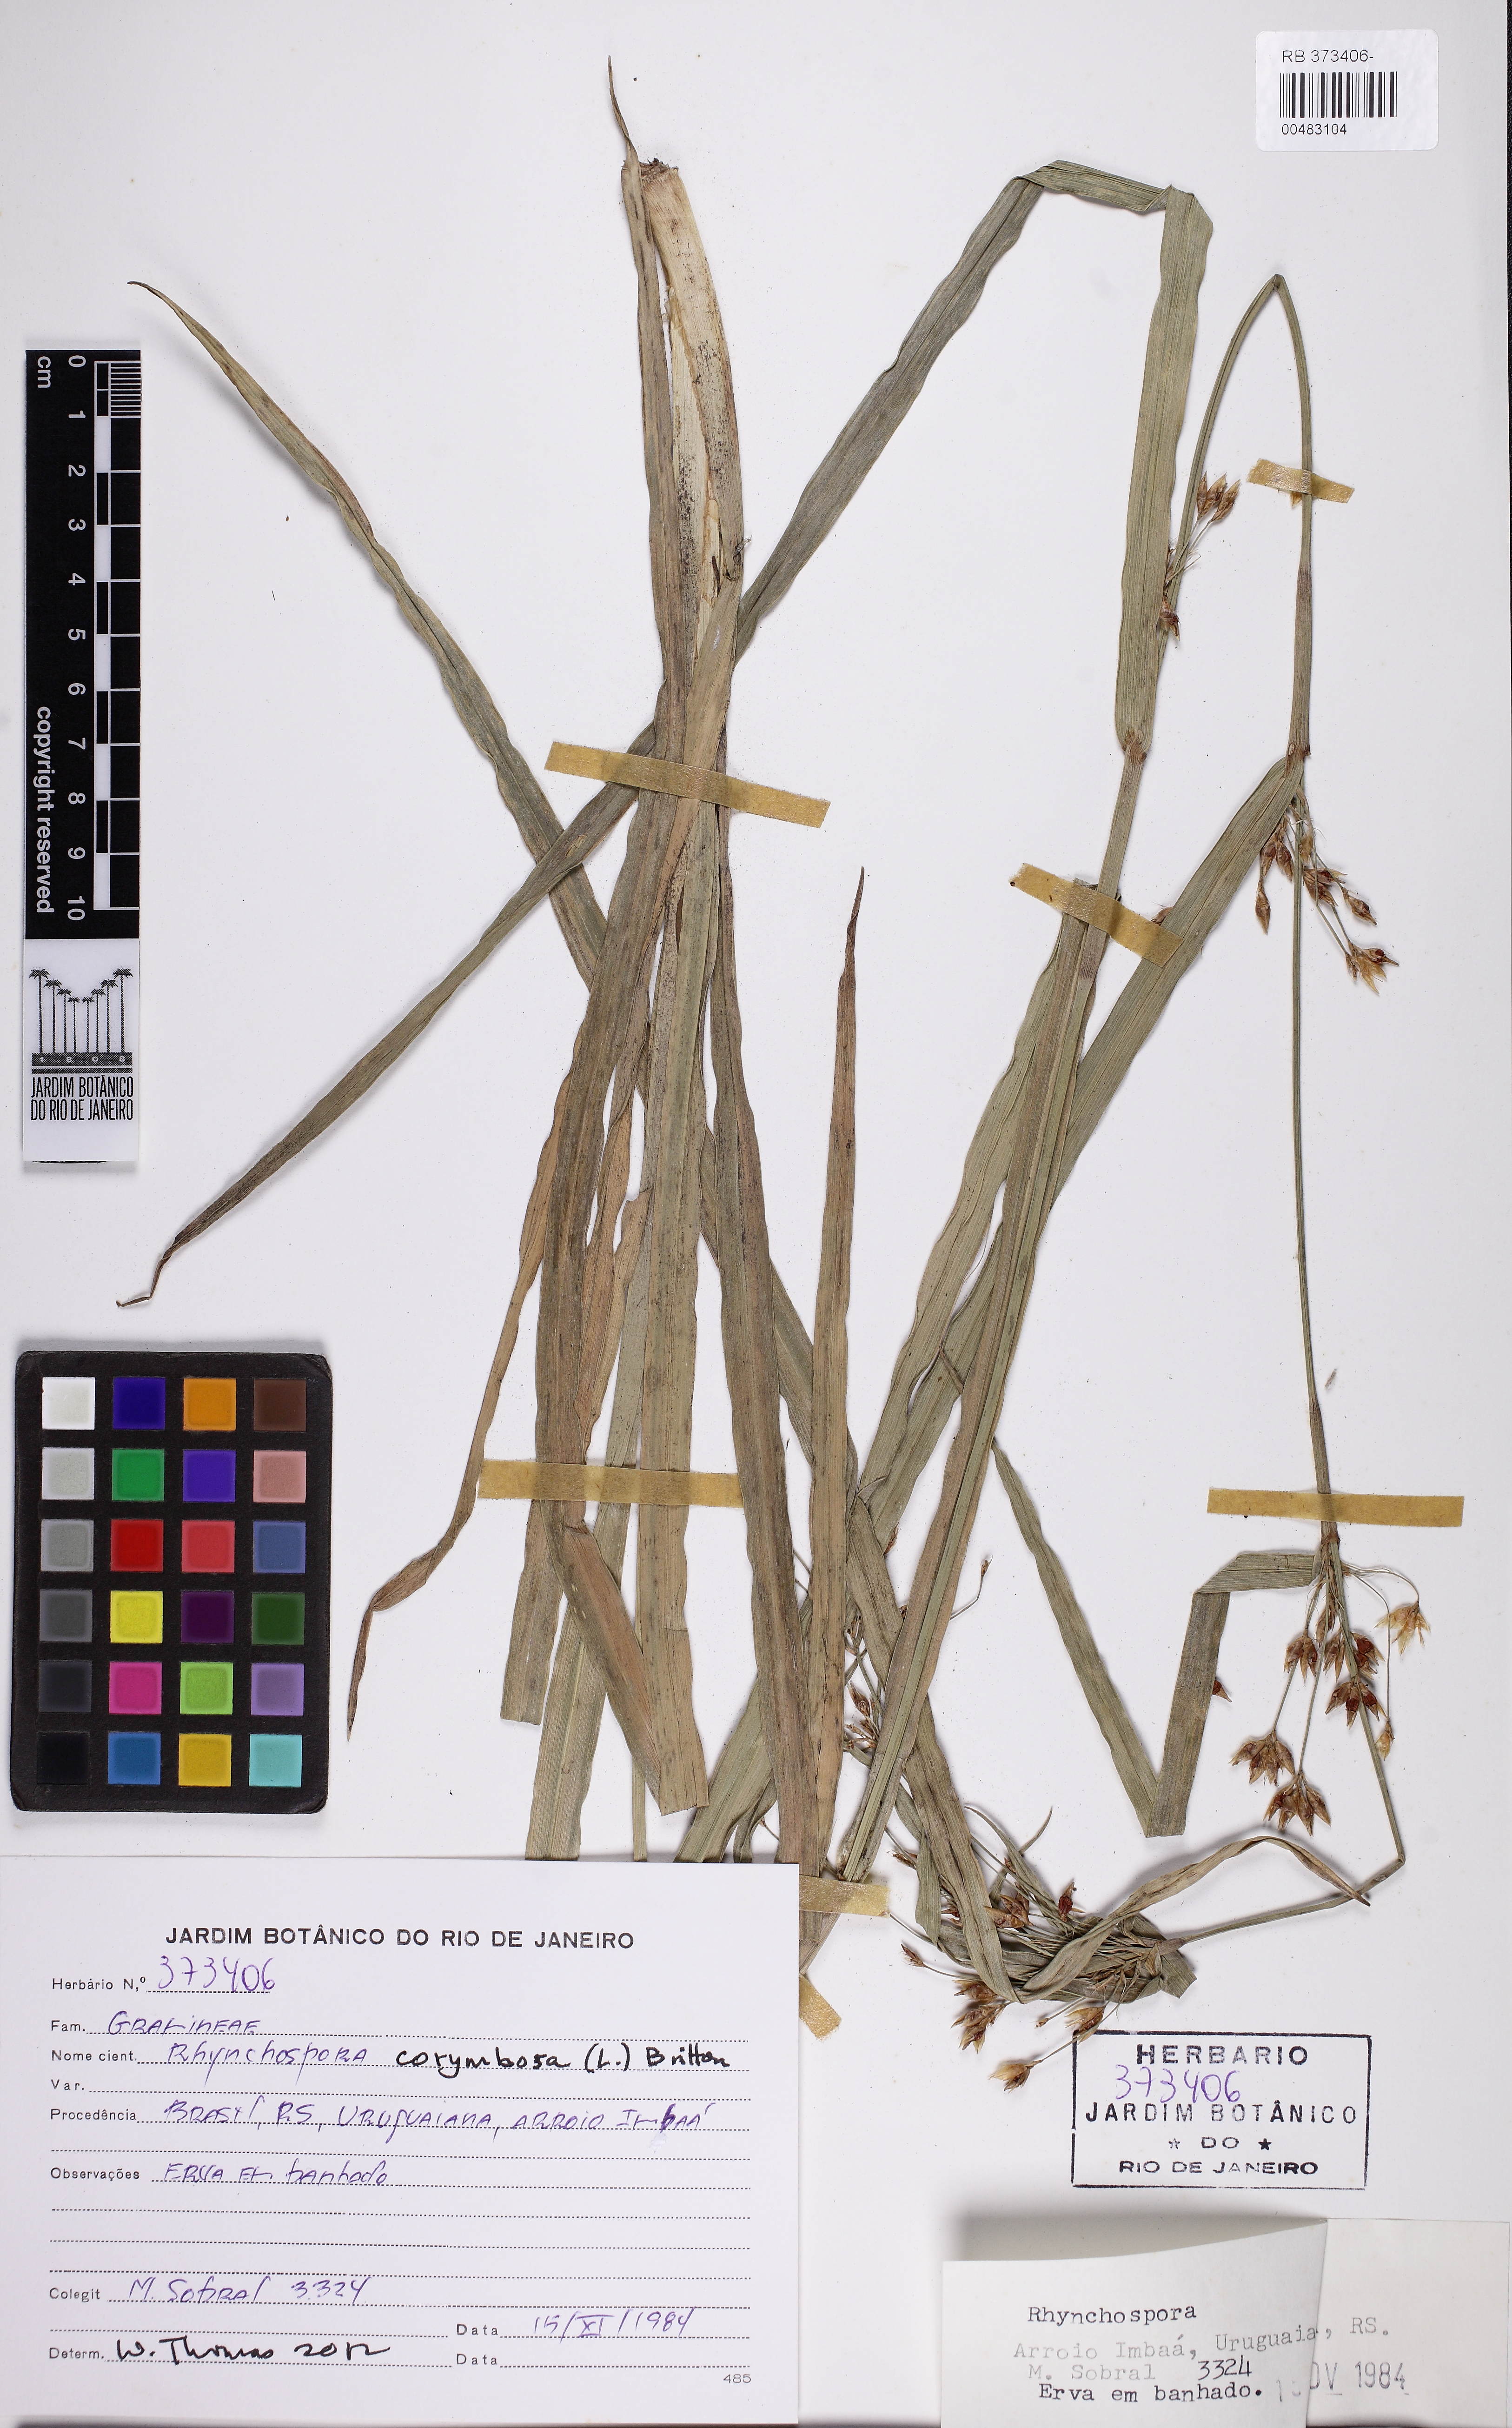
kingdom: Plantae
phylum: Tracheophyta
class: Liliopsida
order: Poales
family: Cyperaceae
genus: Rhynchospora
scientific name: Rhynchospora corymbosa
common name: Golden beak sedge
